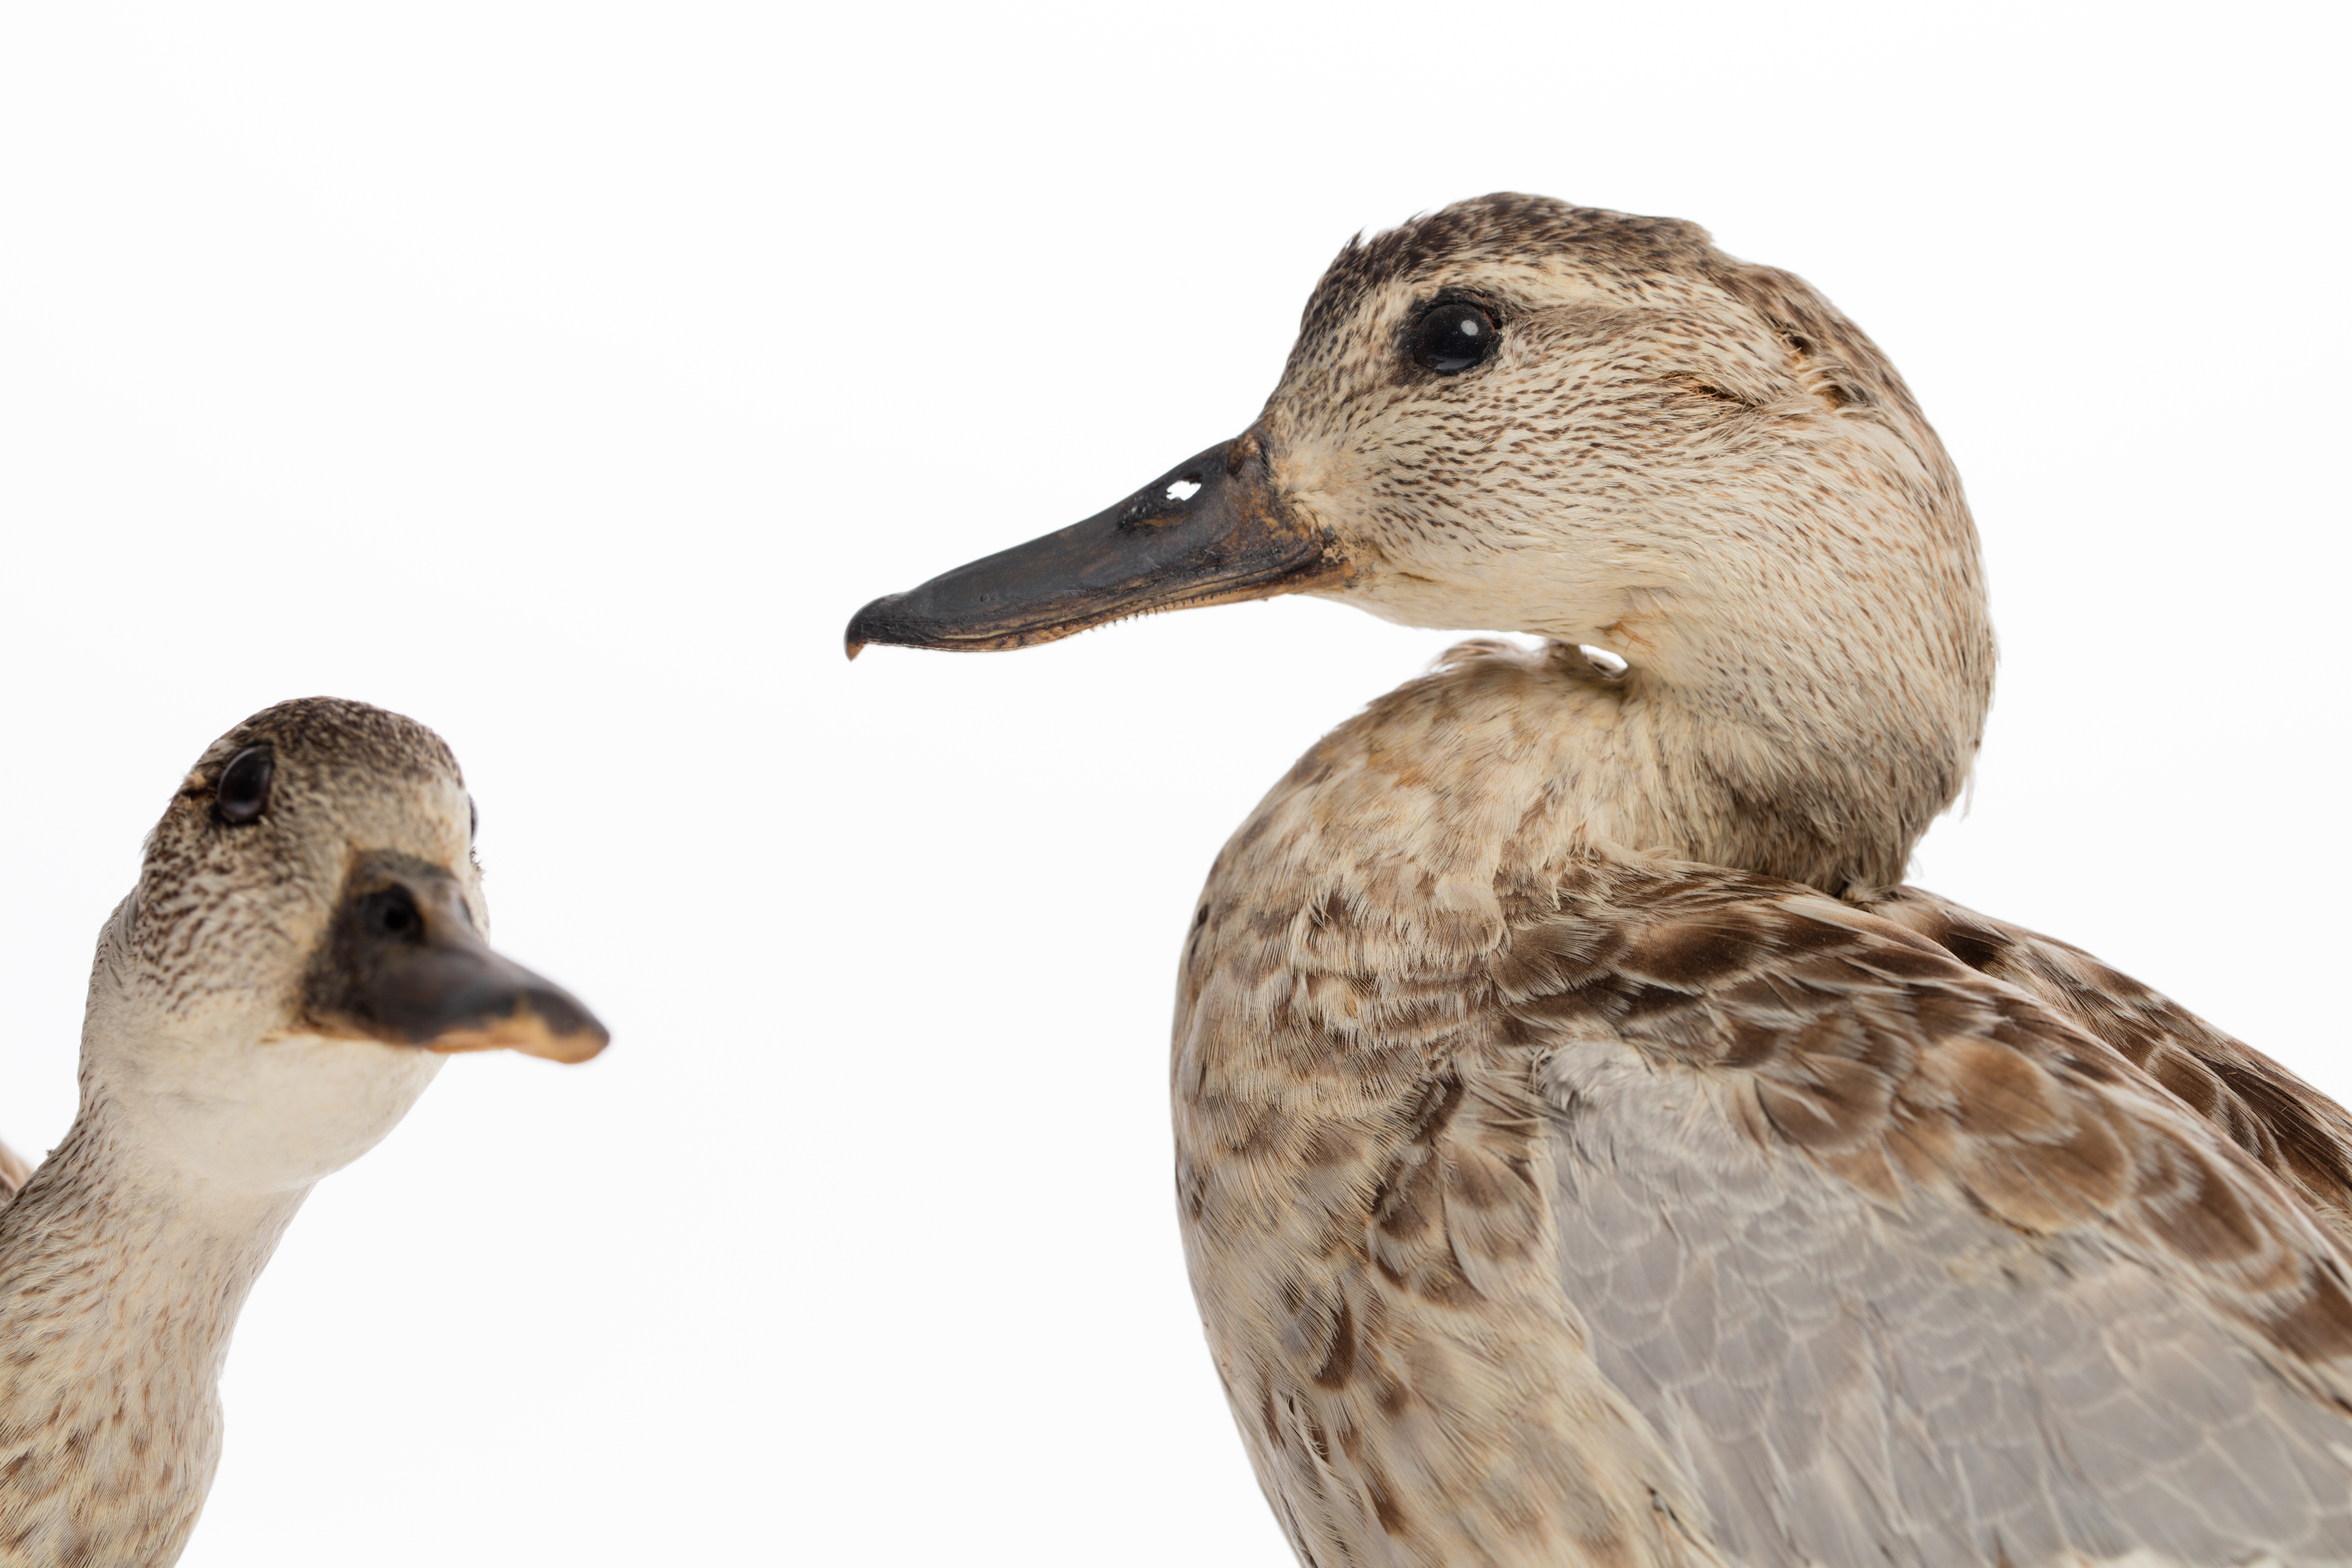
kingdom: Animalia
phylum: Chordata
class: Aves
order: Anseriformes
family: Anatidae
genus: Spatula
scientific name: Spatula querquedula
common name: Garganey
